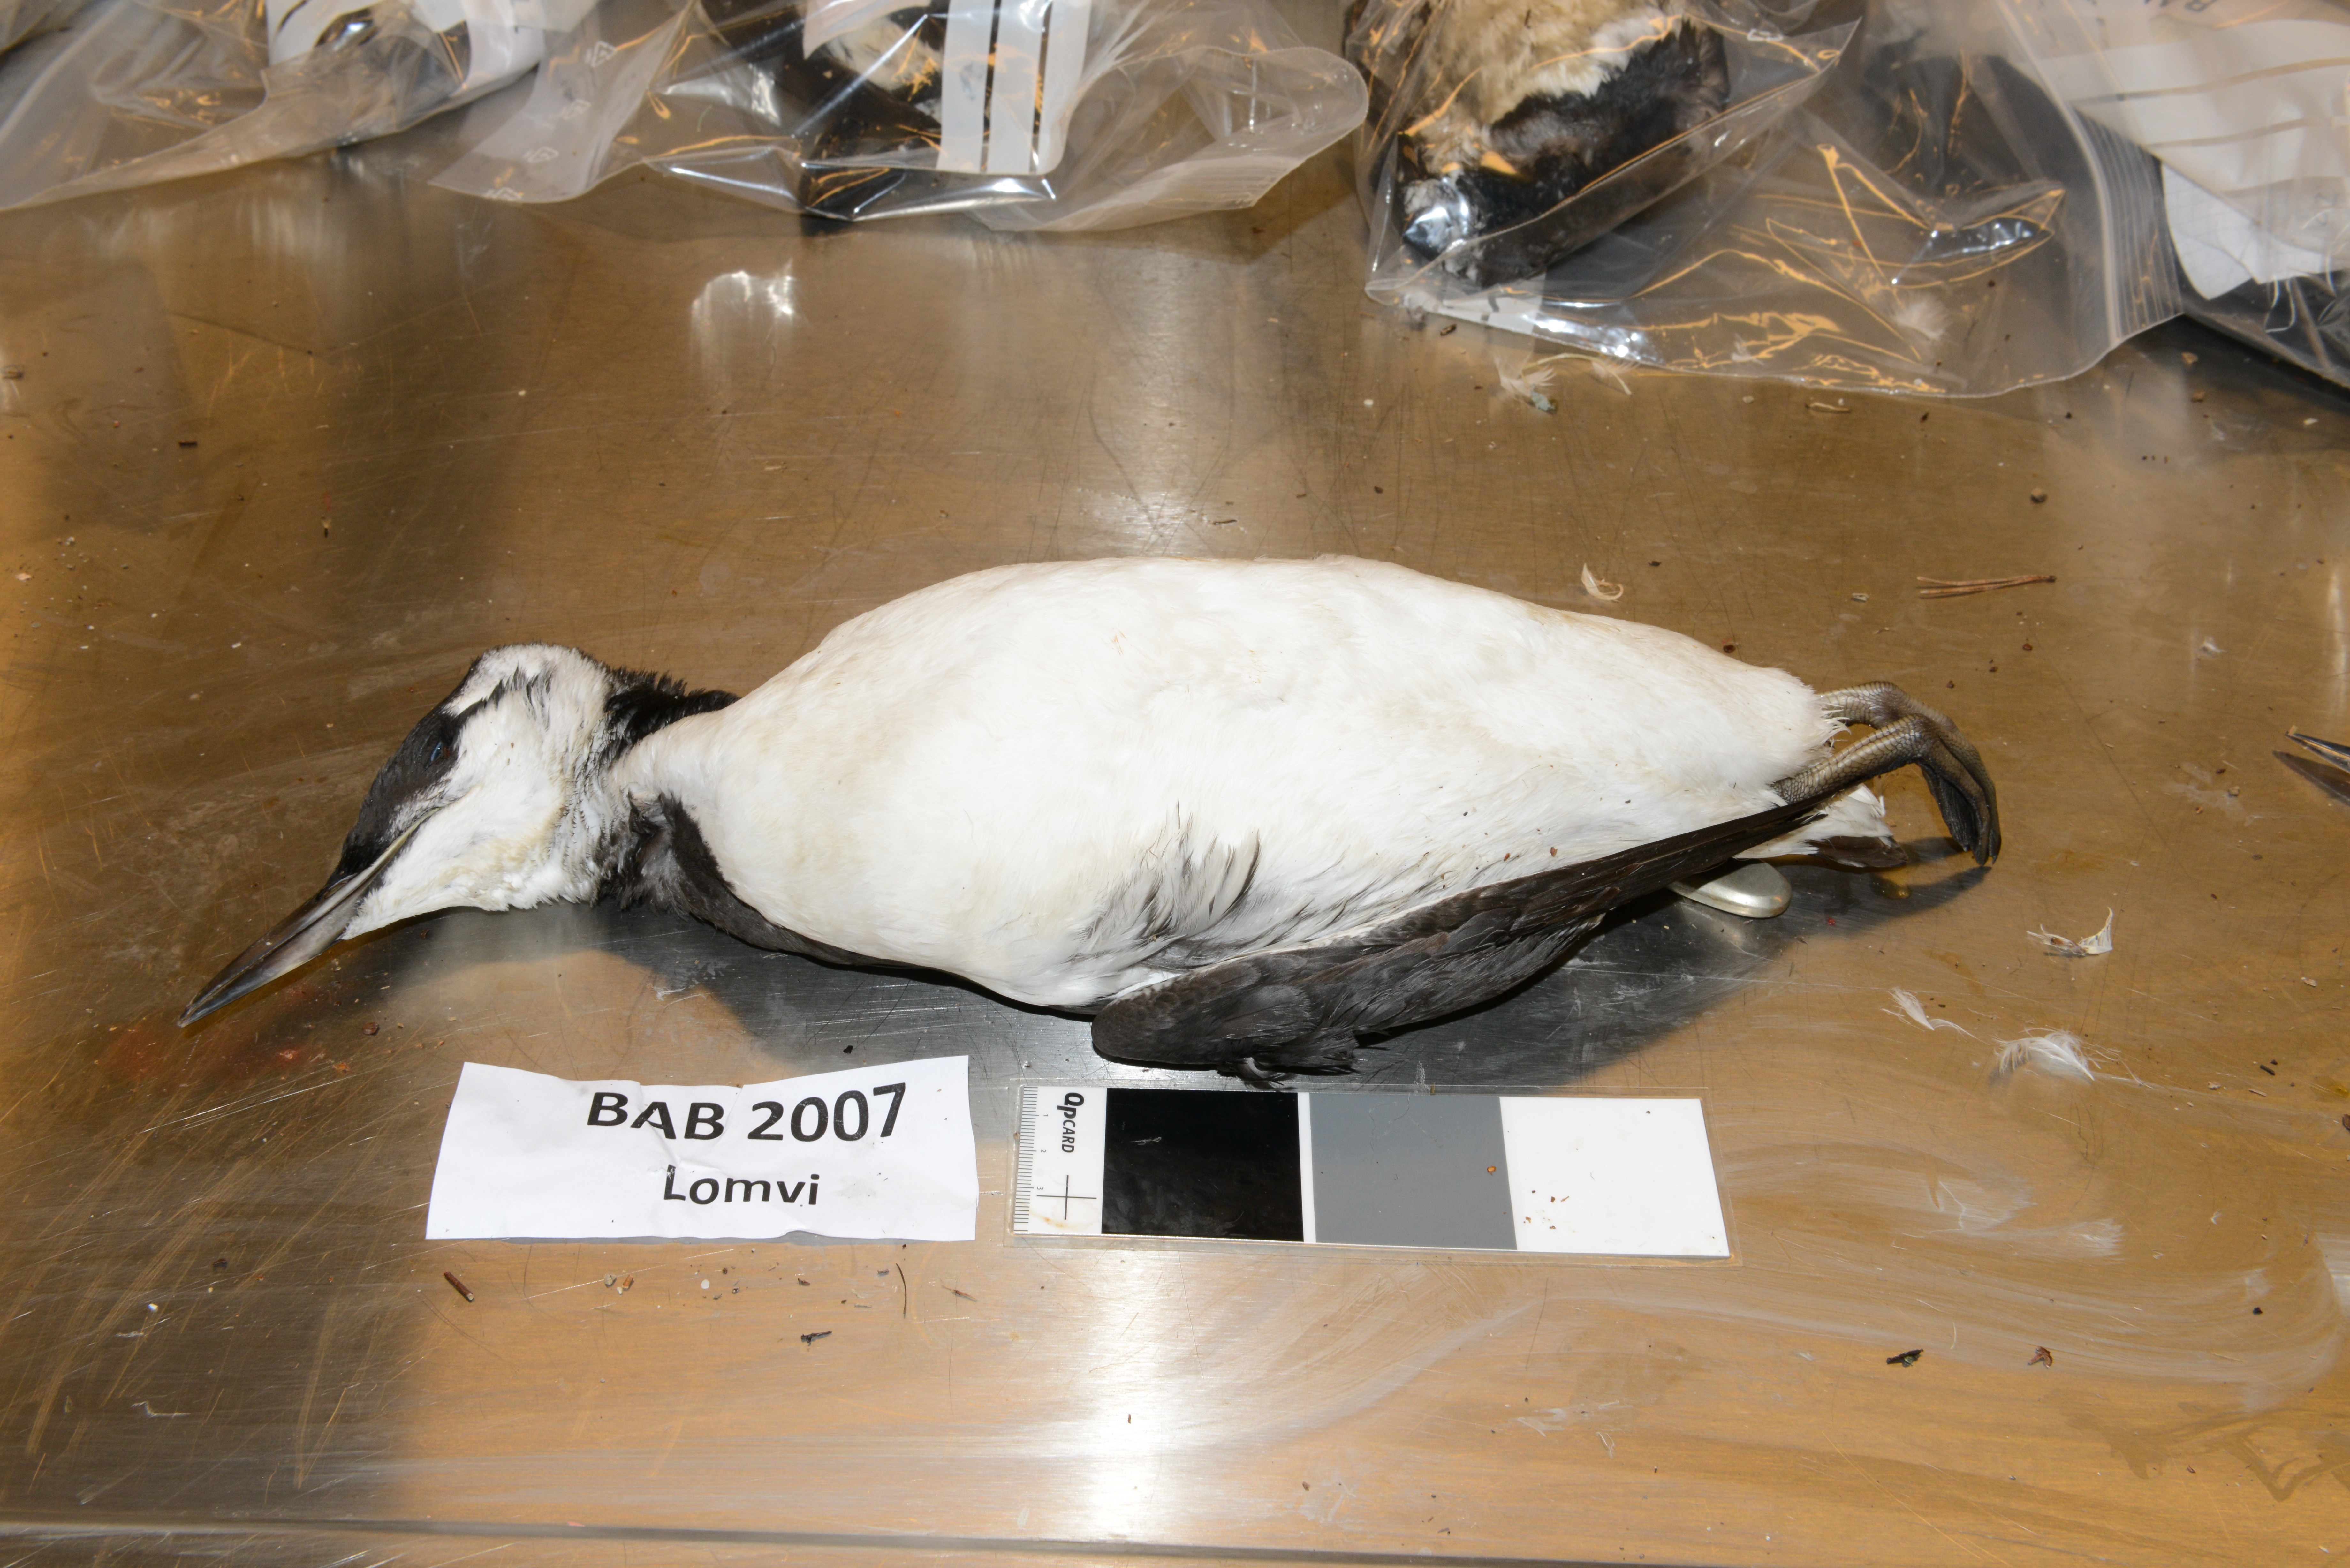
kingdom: Animalia
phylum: Chordata
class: Aves
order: Charadriiformes
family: Alcidae
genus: Uria
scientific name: Uria aalge
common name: Common murre
